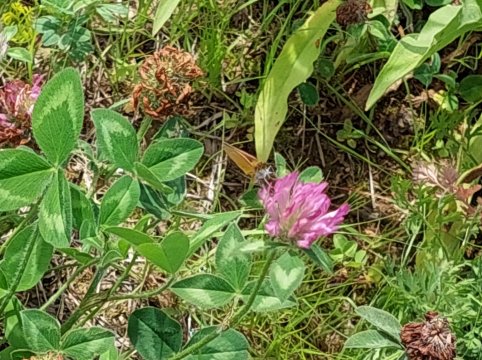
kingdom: Animalia
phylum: Arthropoda
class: Insecta
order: Lepidoptera
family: Hesperiidae
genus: Thymelicus
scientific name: Thymelicus lineola
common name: European Skipper
